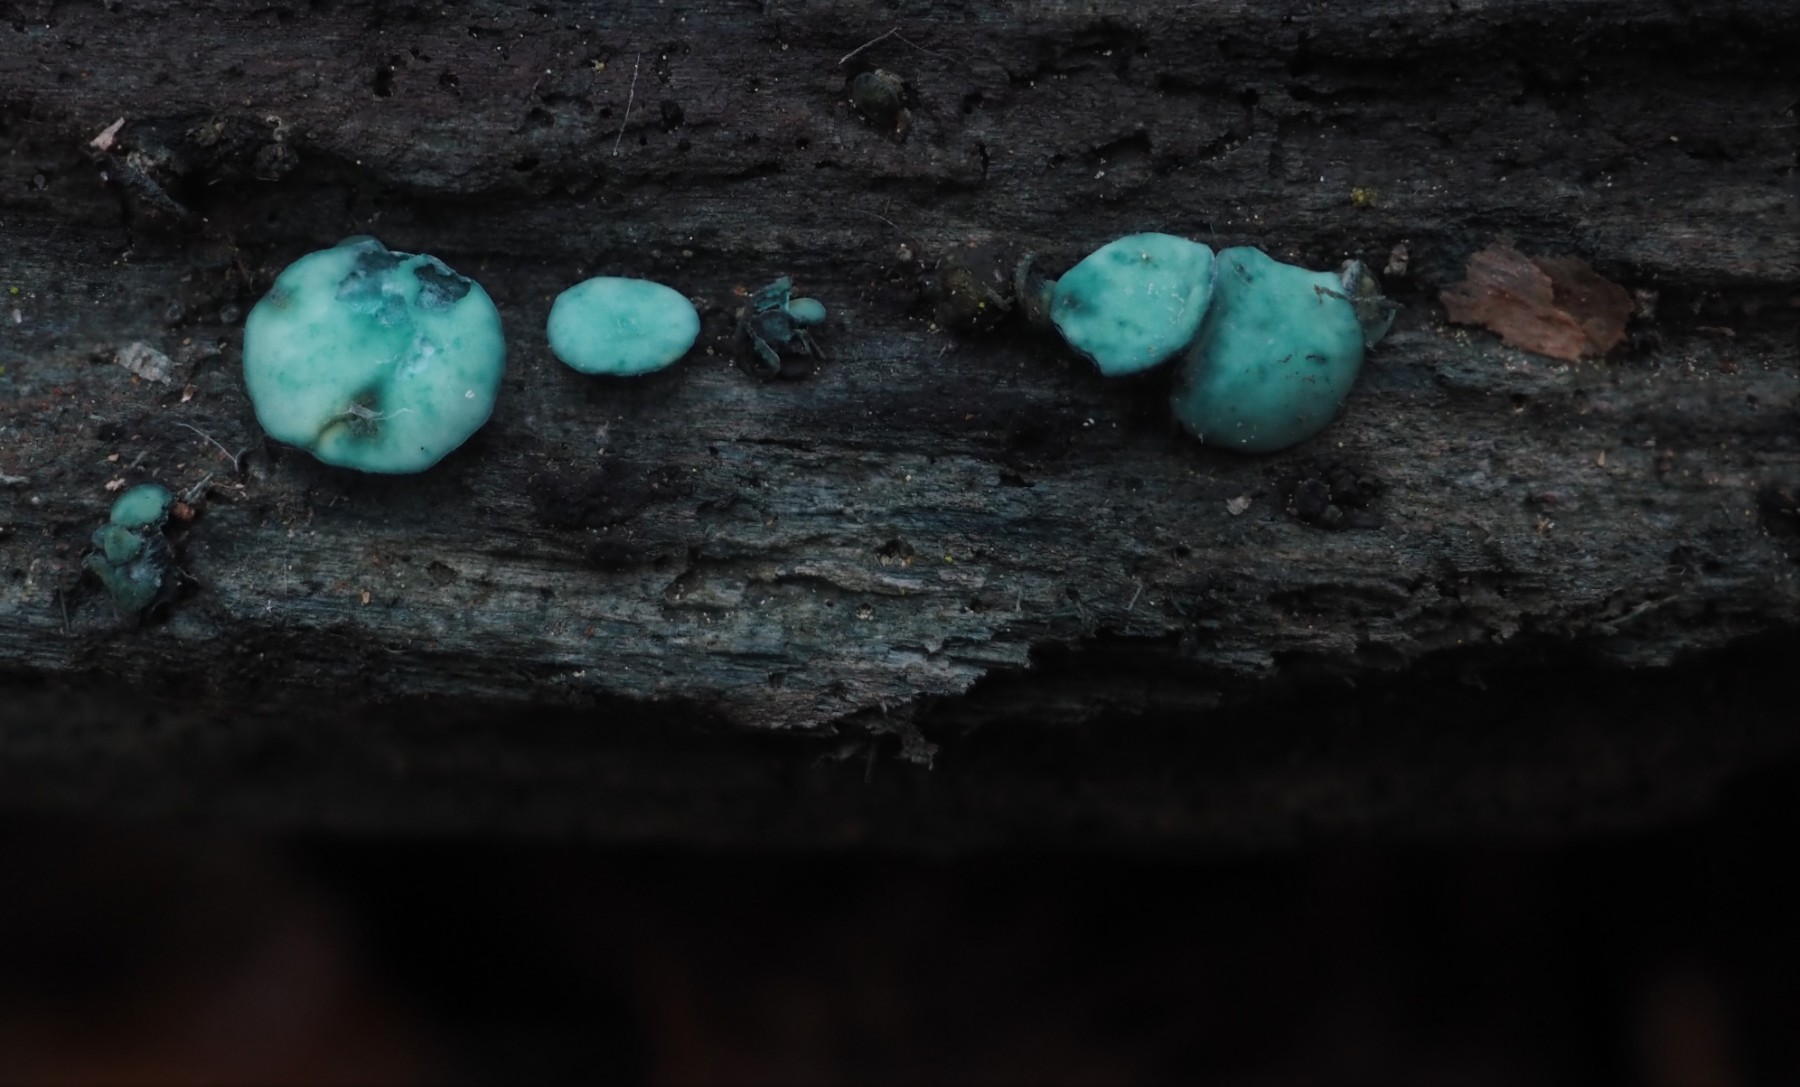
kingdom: Fungi
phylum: Ascomycota
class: Leotiomycetes
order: Helotiales
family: Chlorociboriaceae
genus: Chlorociboria
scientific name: Chlorociboria aeruginascens
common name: almindelig grønskive
